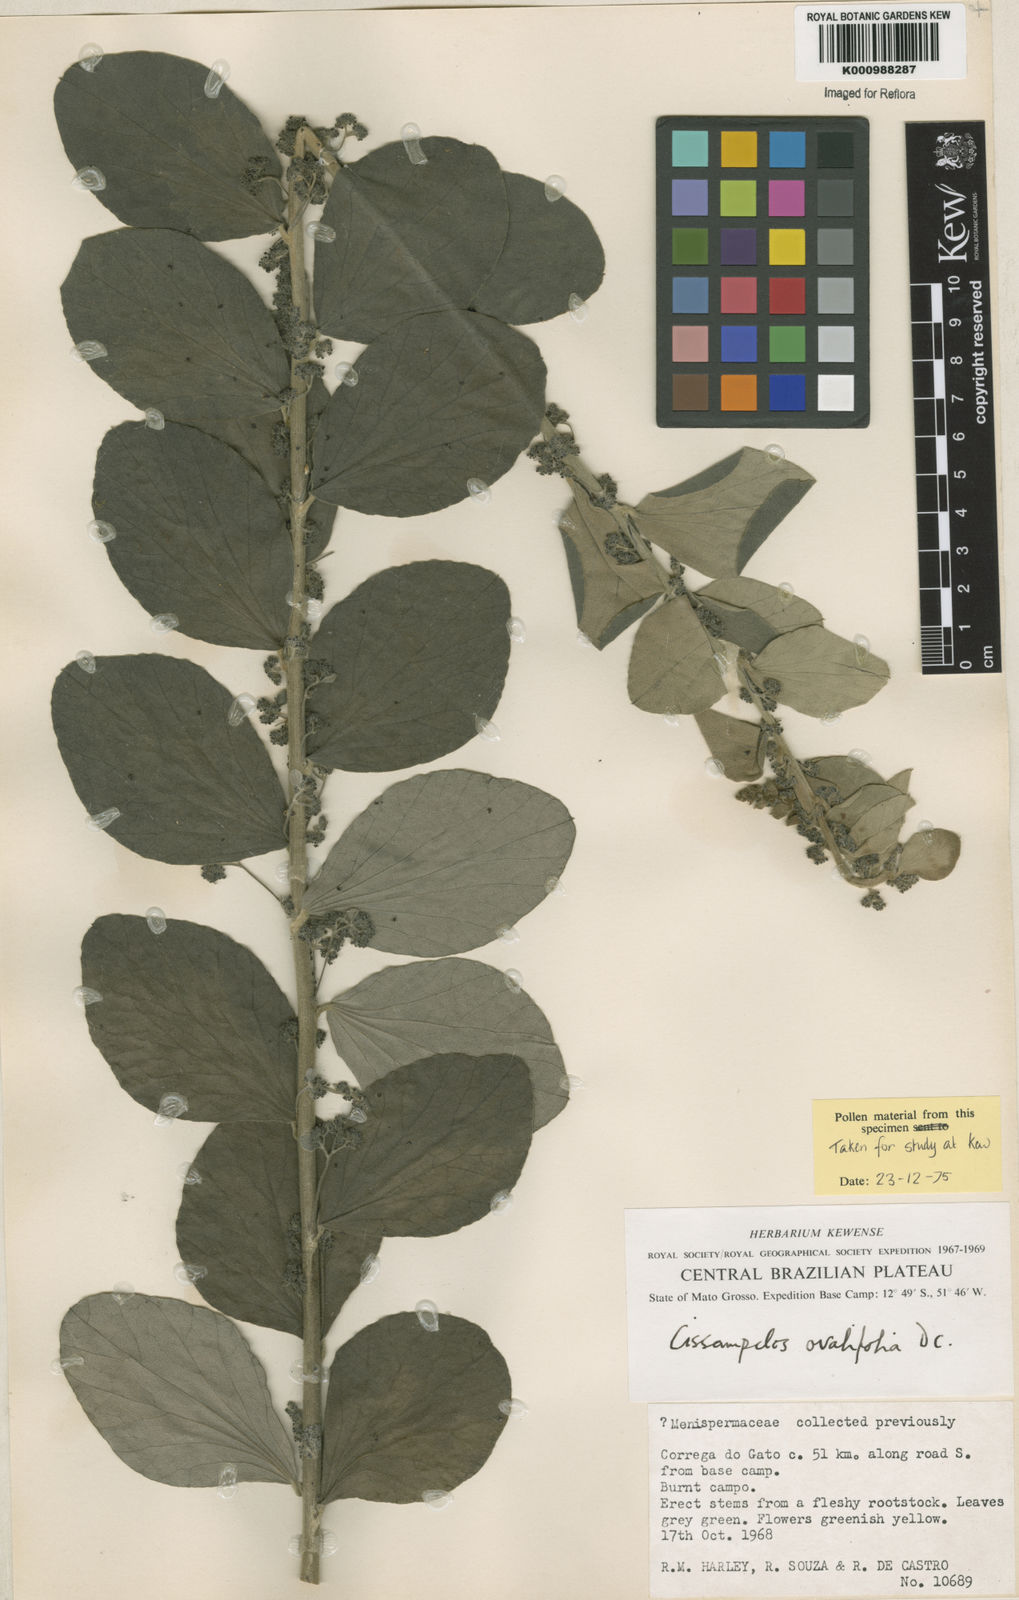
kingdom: Plantae
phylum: Tracheophyta
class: Magnoliopsida
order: Ranunculales
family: Menispermaceae
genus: Cissampelos
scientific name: Cissampelos ovalifolia
